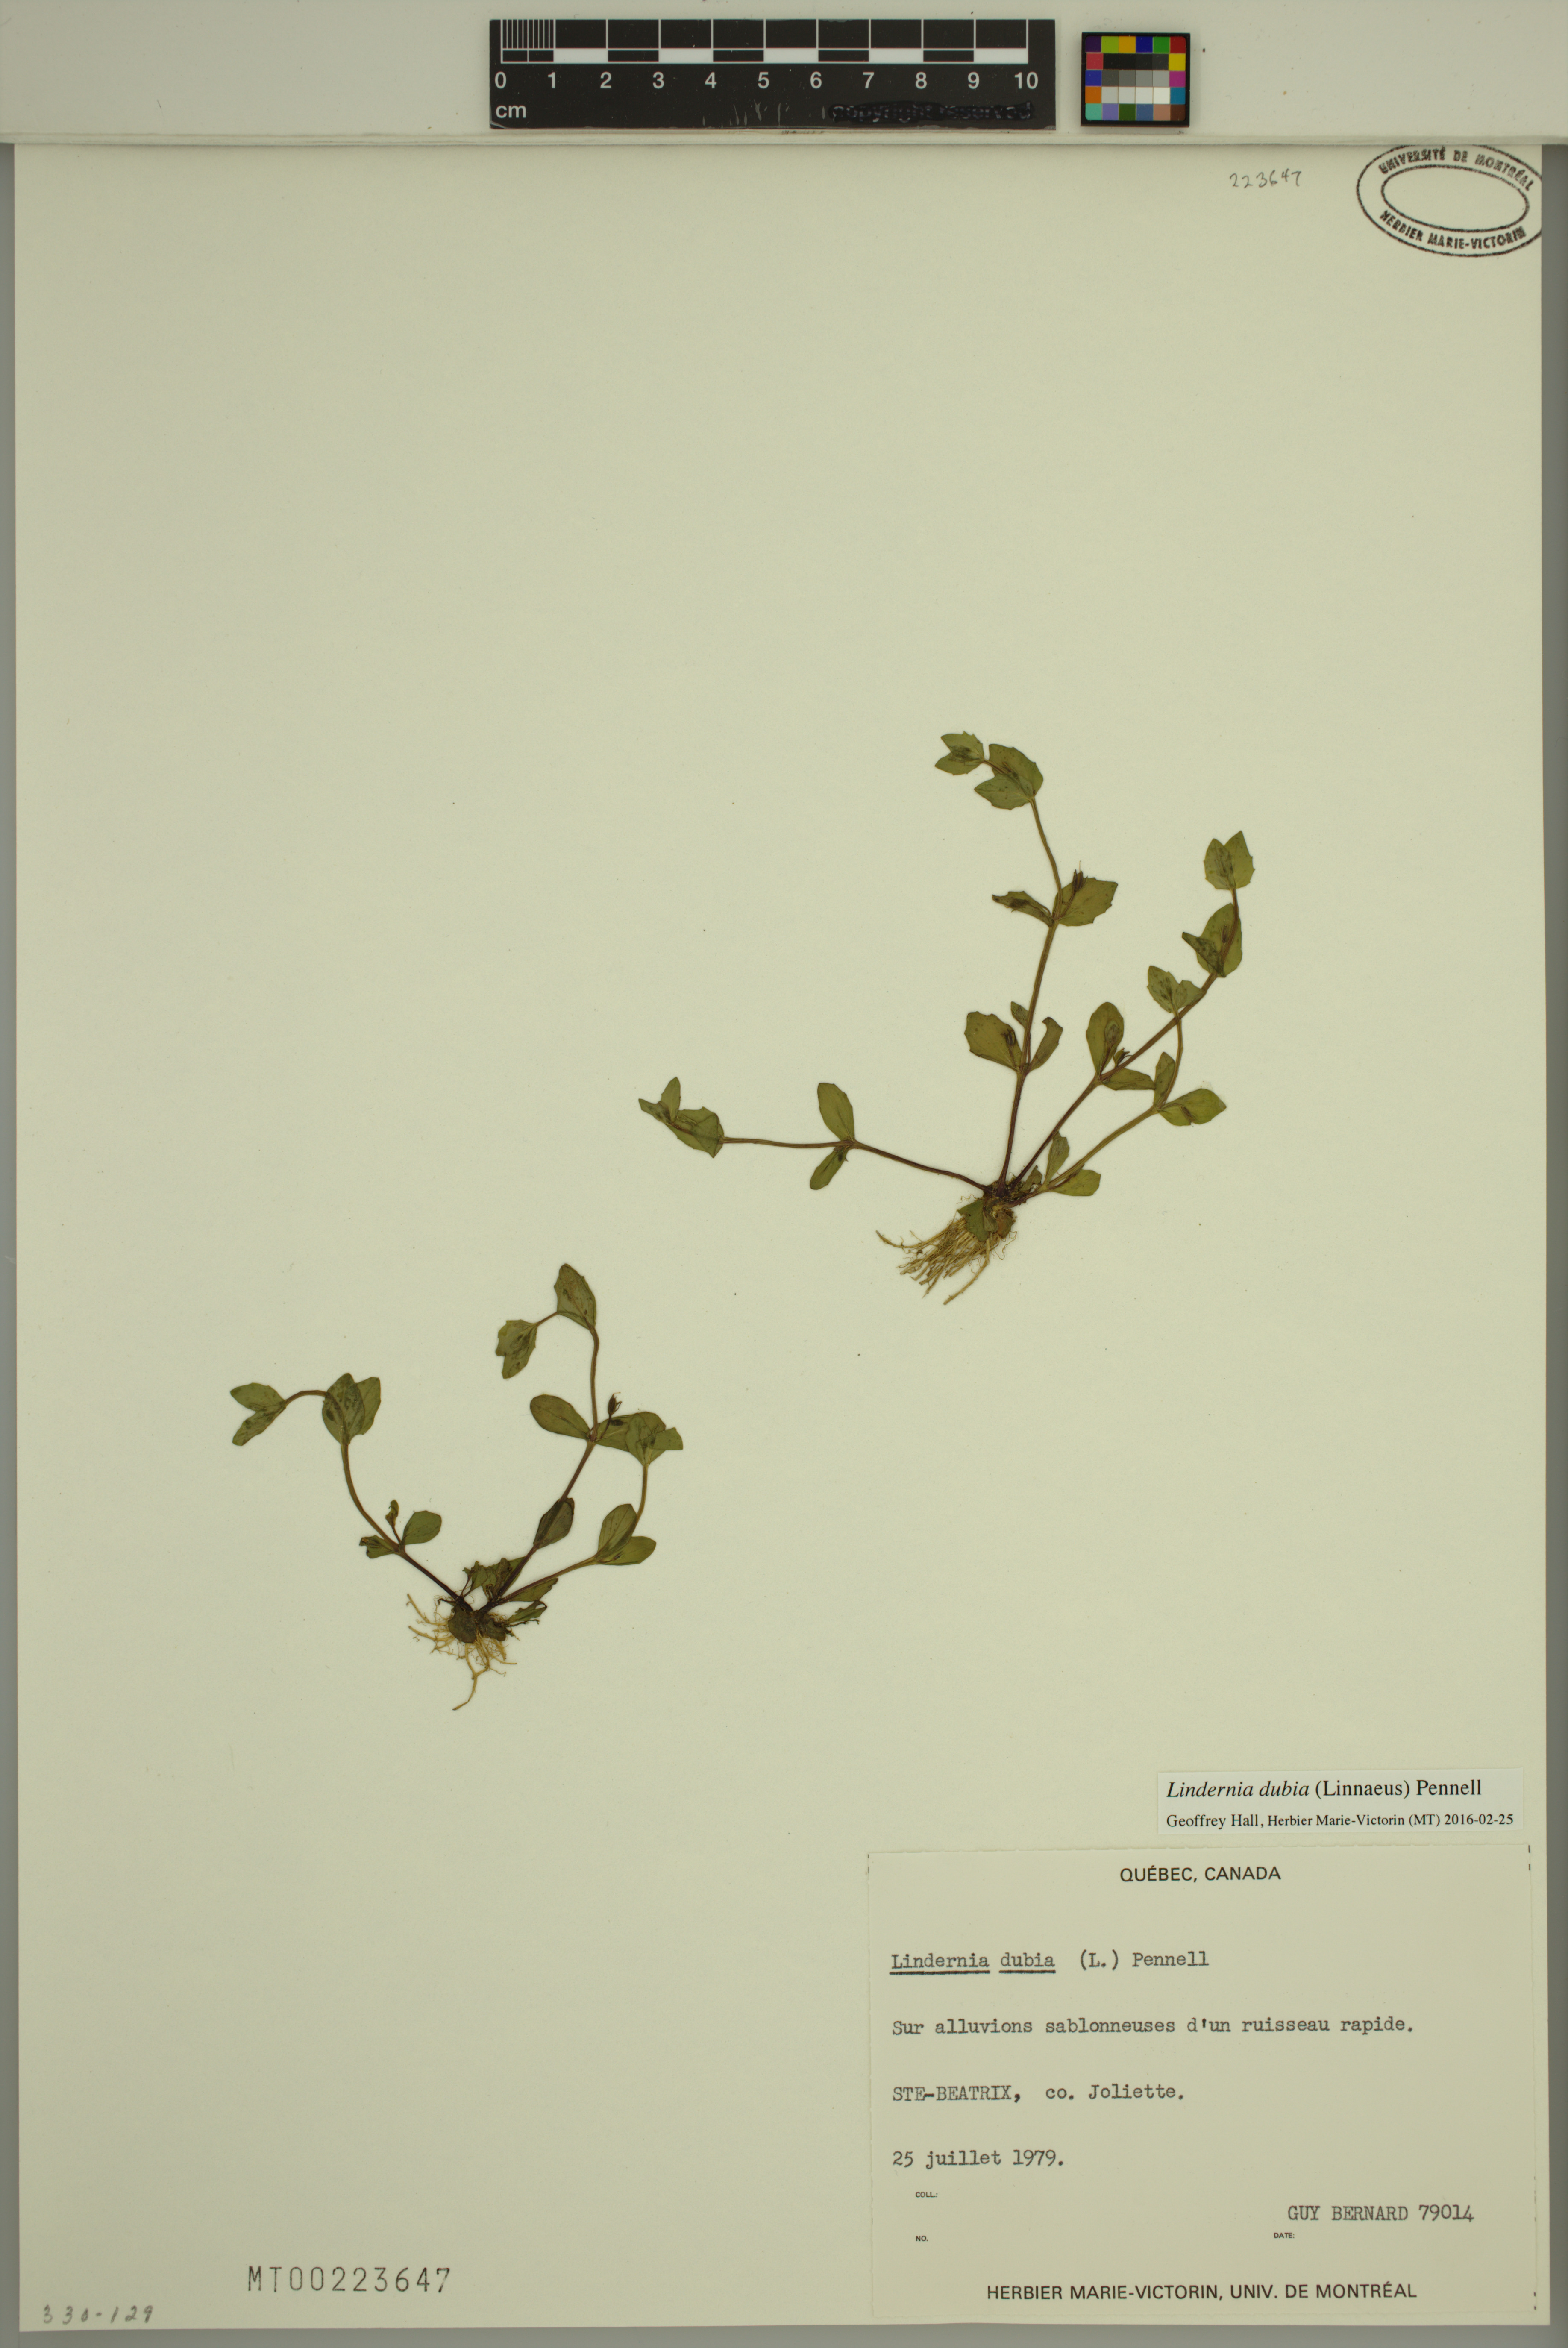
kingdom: Plantae
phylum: Tracheophyta
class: Magnoliopsida
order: Lamiales
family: Linderniaceae
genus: Lindernia
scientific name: Lindernia dubia
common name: Annual false pimpernel
